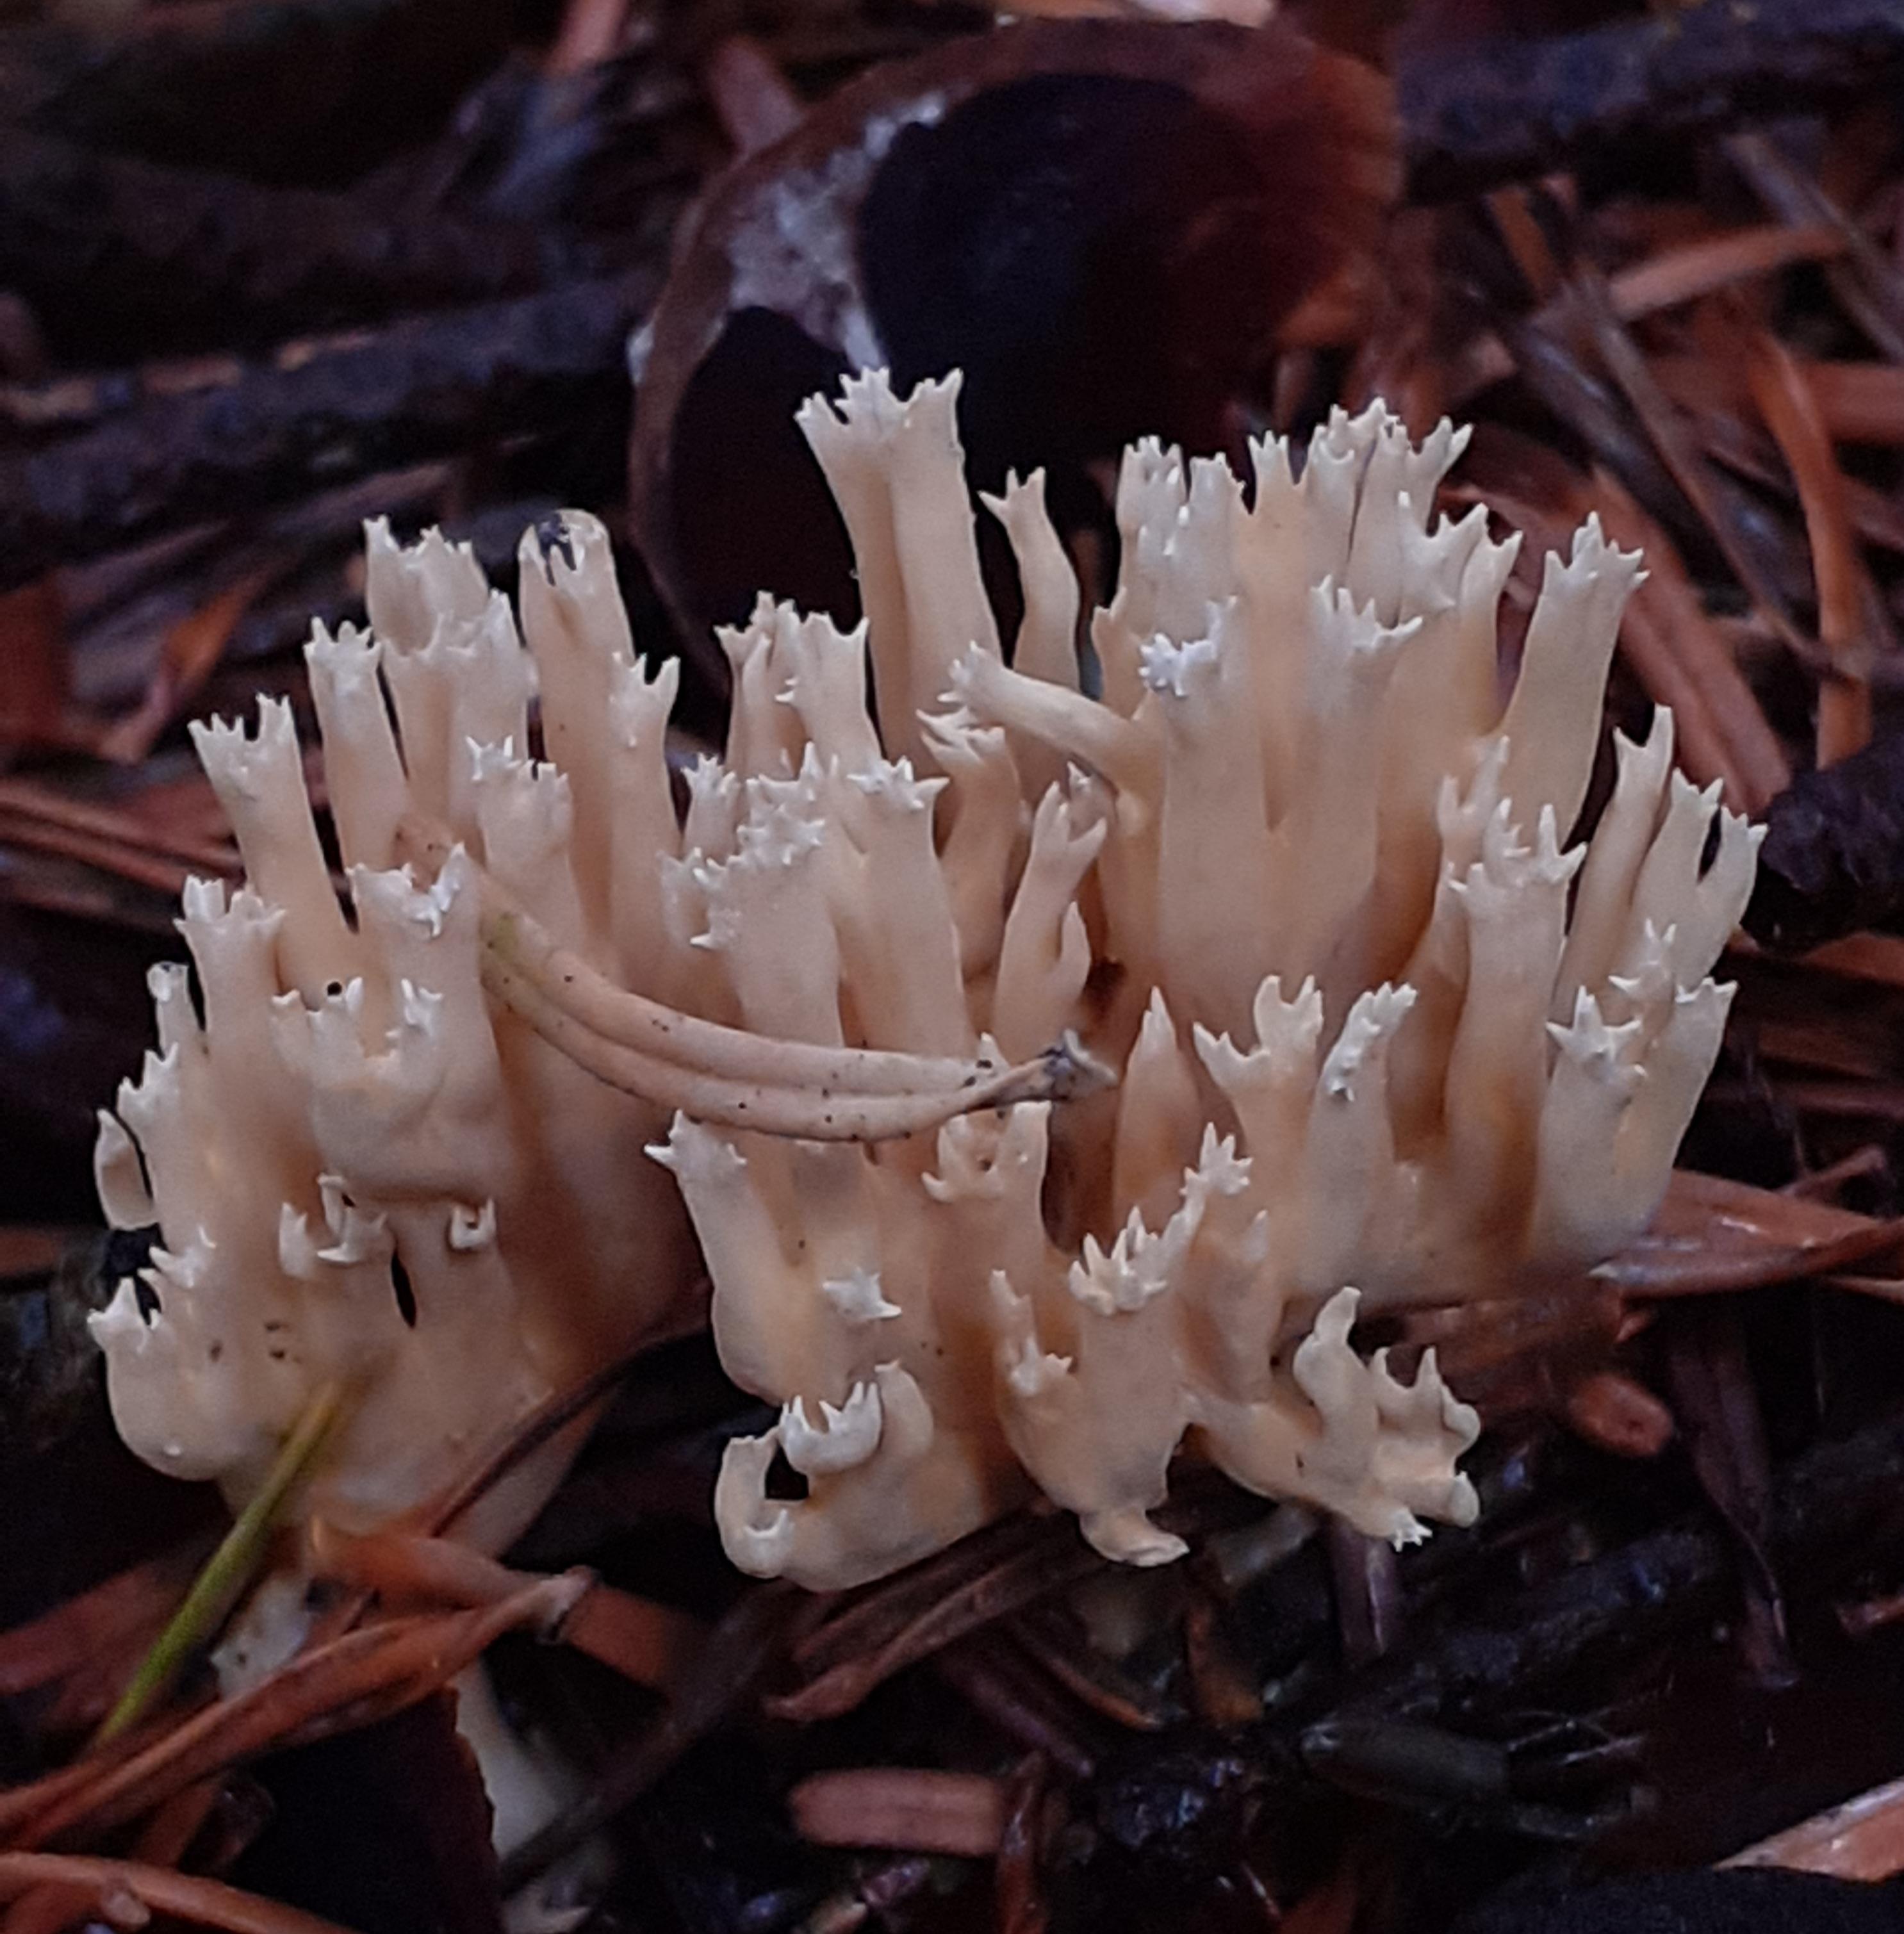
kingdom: Fungi
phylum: Basidiomycota
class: Agaricomycetes
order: Gomphales
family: Gomphaceae
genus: Phaeoclavulina
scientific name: Phaeoclavulina eumorpha
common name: gran-koralsvamp
